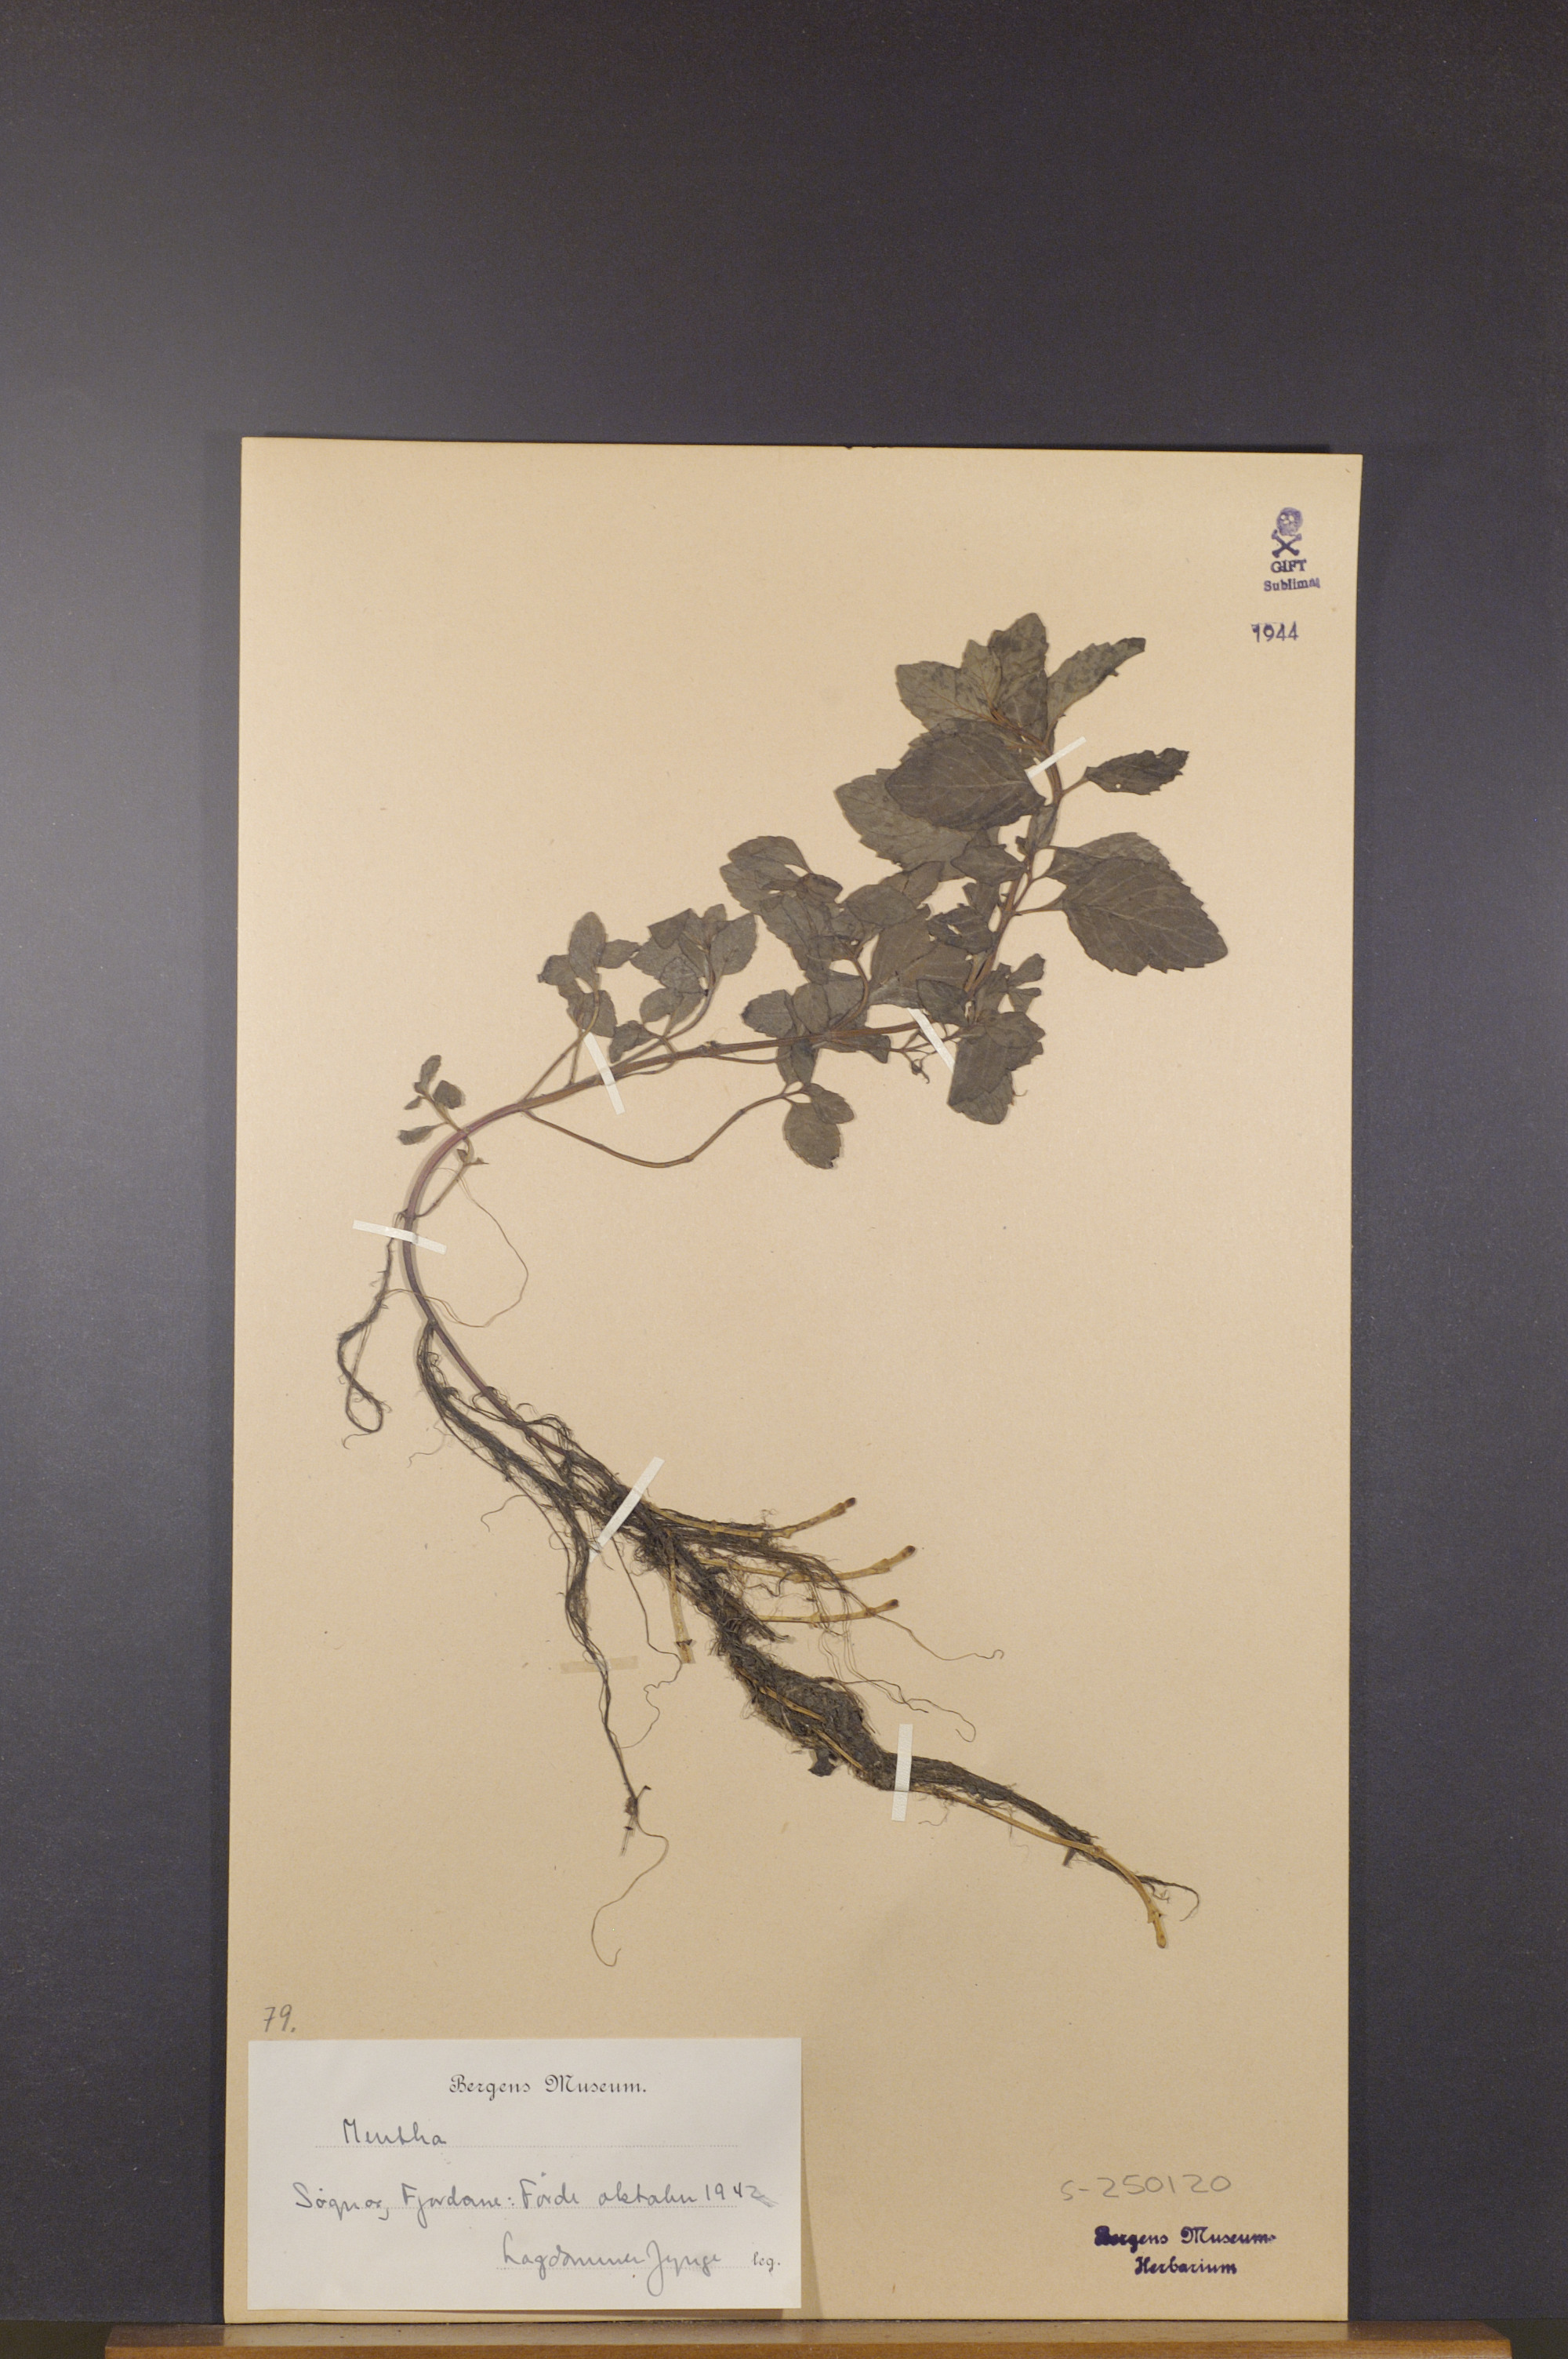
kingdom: Plantae
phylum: Tracheophyta
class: Magnoliopsida
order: Lamiales
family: Lamiaceae
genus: Mentha
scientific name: Mentha
